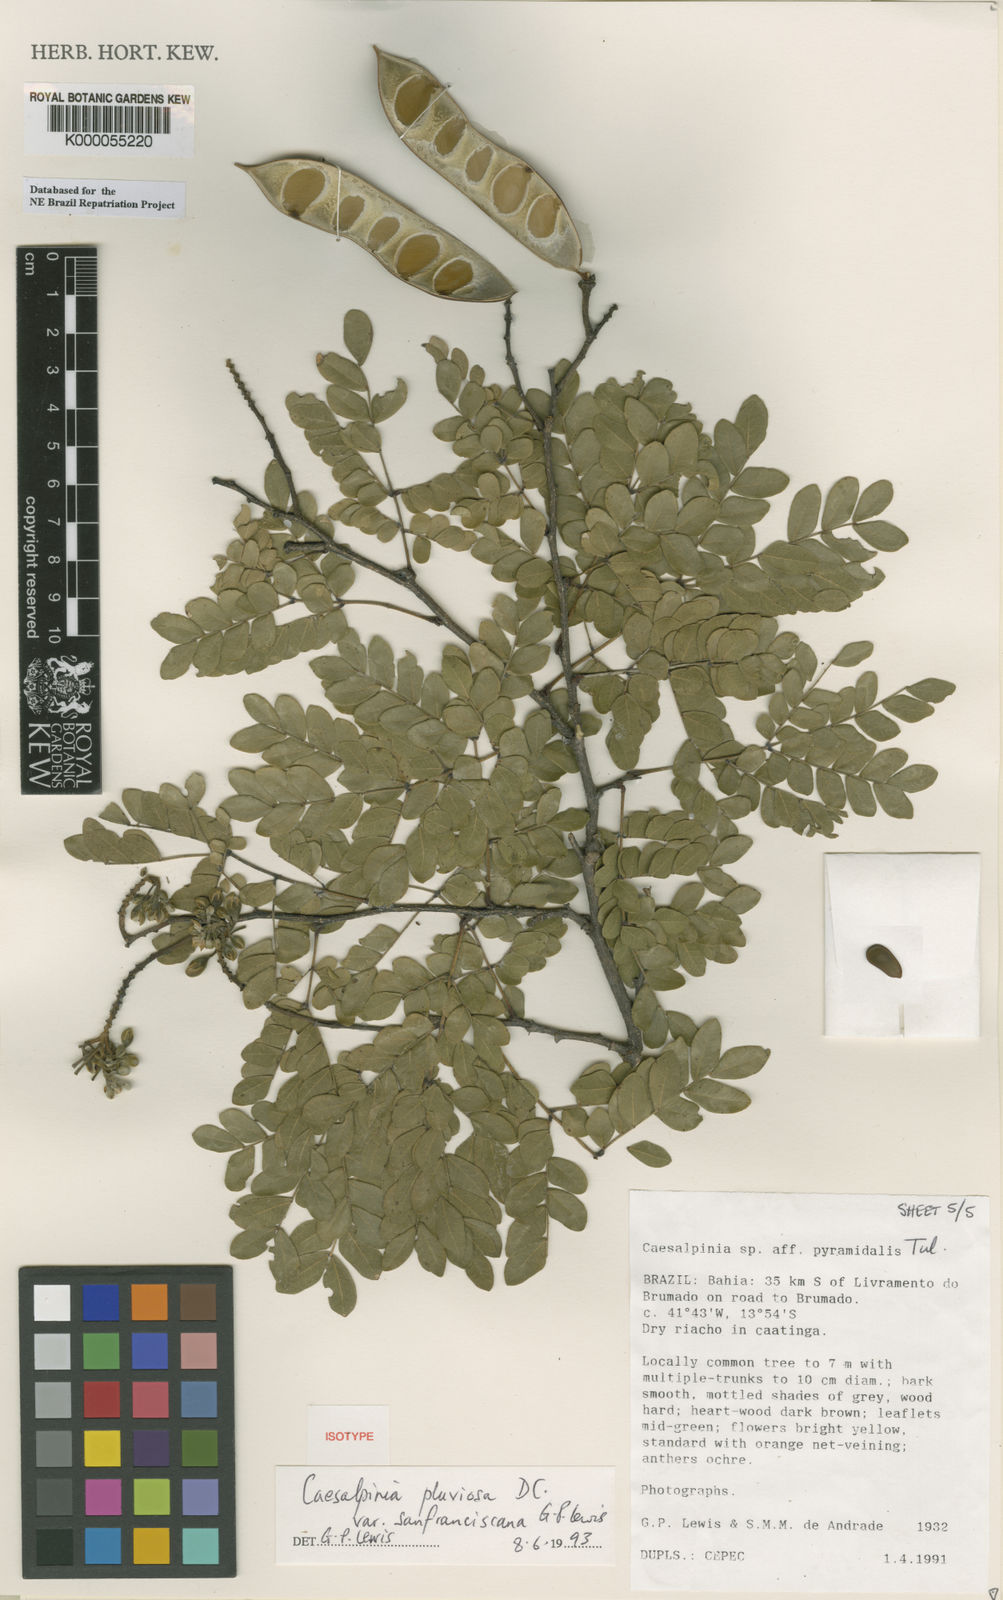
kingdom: Plantae
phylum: Tracheophyta
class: Magnoliopsida
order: Fabales
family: Fabaceae
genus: Cenostigma
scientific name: Cenostigma pluviosum
